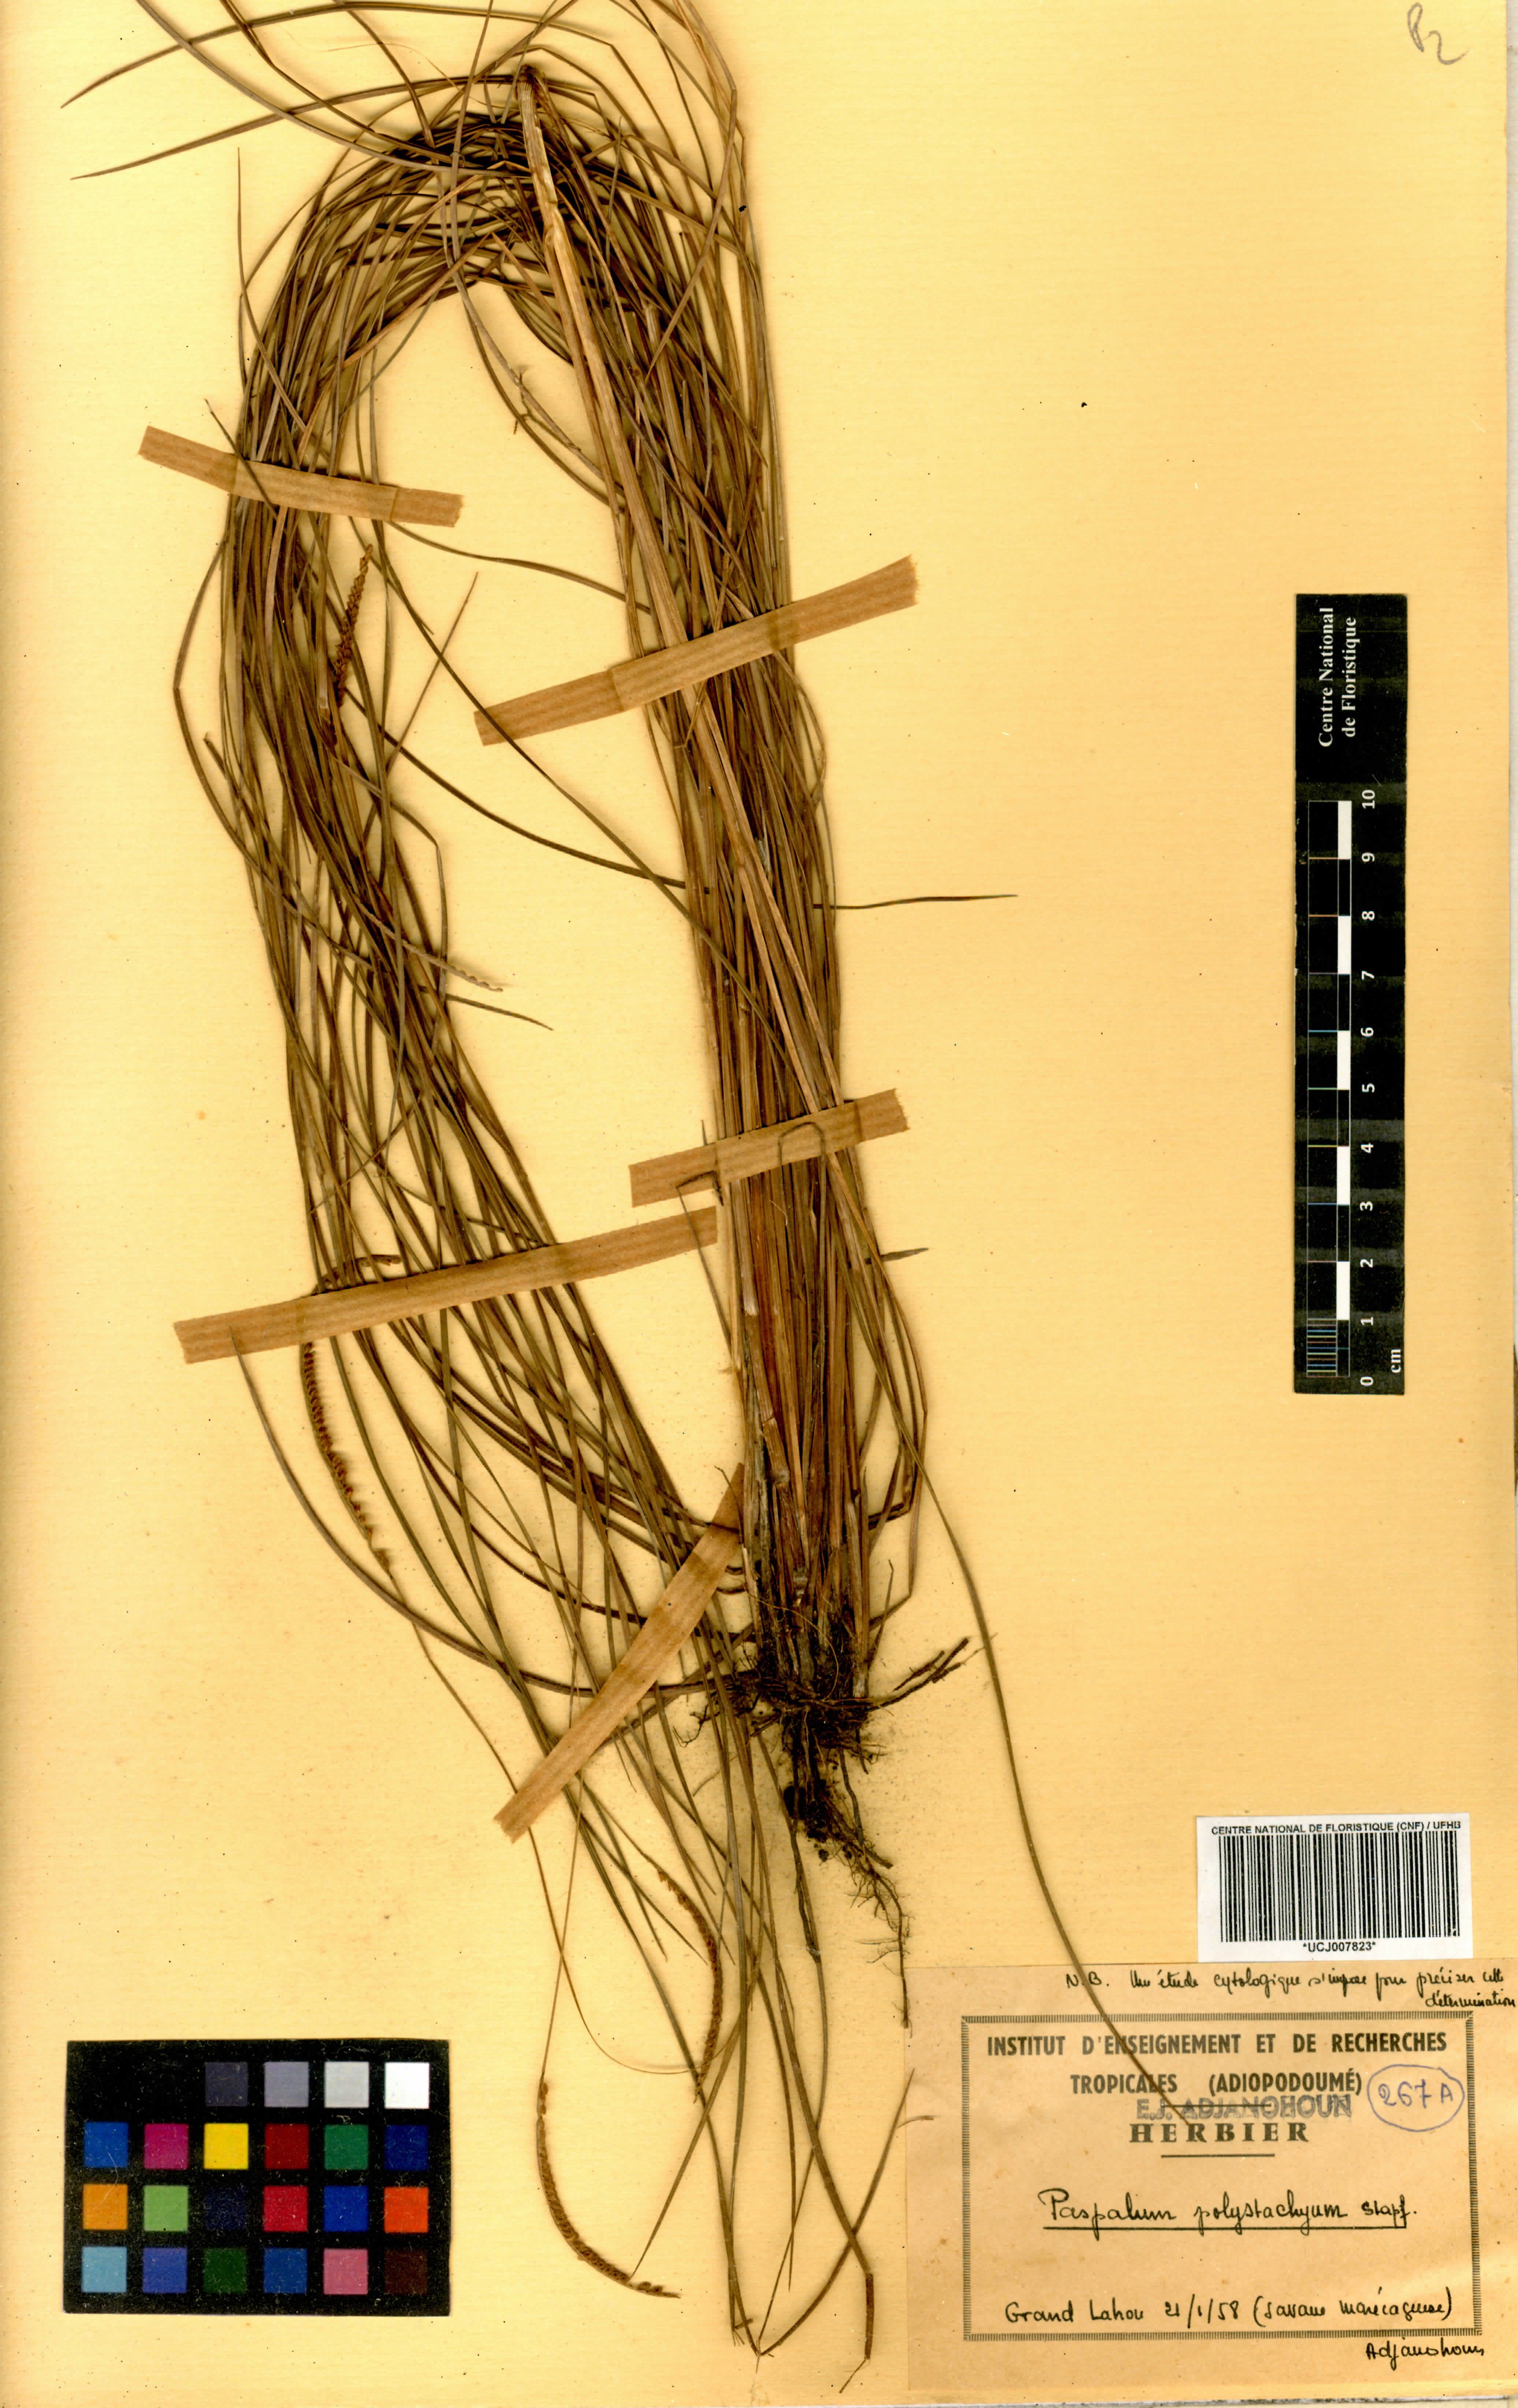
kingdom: Plantae
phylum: Tracheophyta
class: Liliopsida
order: Poales
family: Poaceae
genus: Paspalum
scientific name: Paspalum
